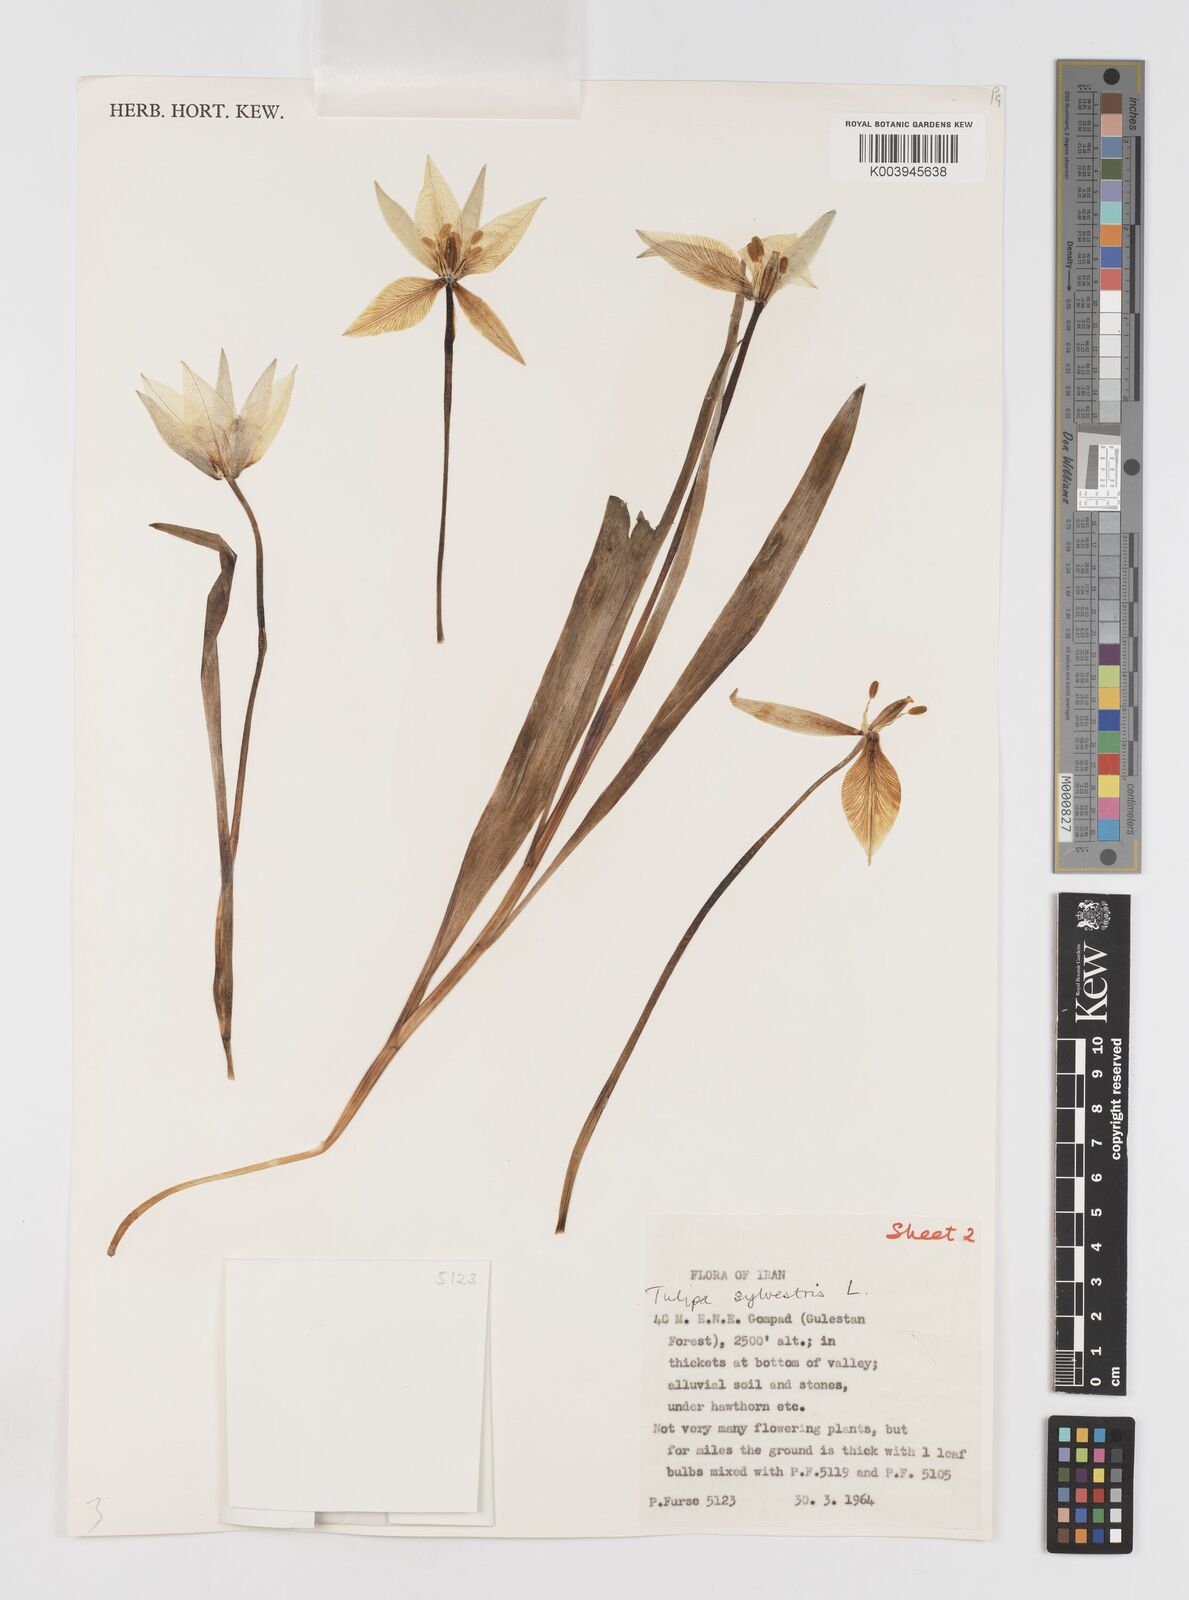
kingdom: Plantae
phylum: Tracheophyta
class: Liliopsida
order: Liliales
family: Liliaceae
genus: Tulipa
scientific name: Tulipa sylvestris
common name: Wild tulip
